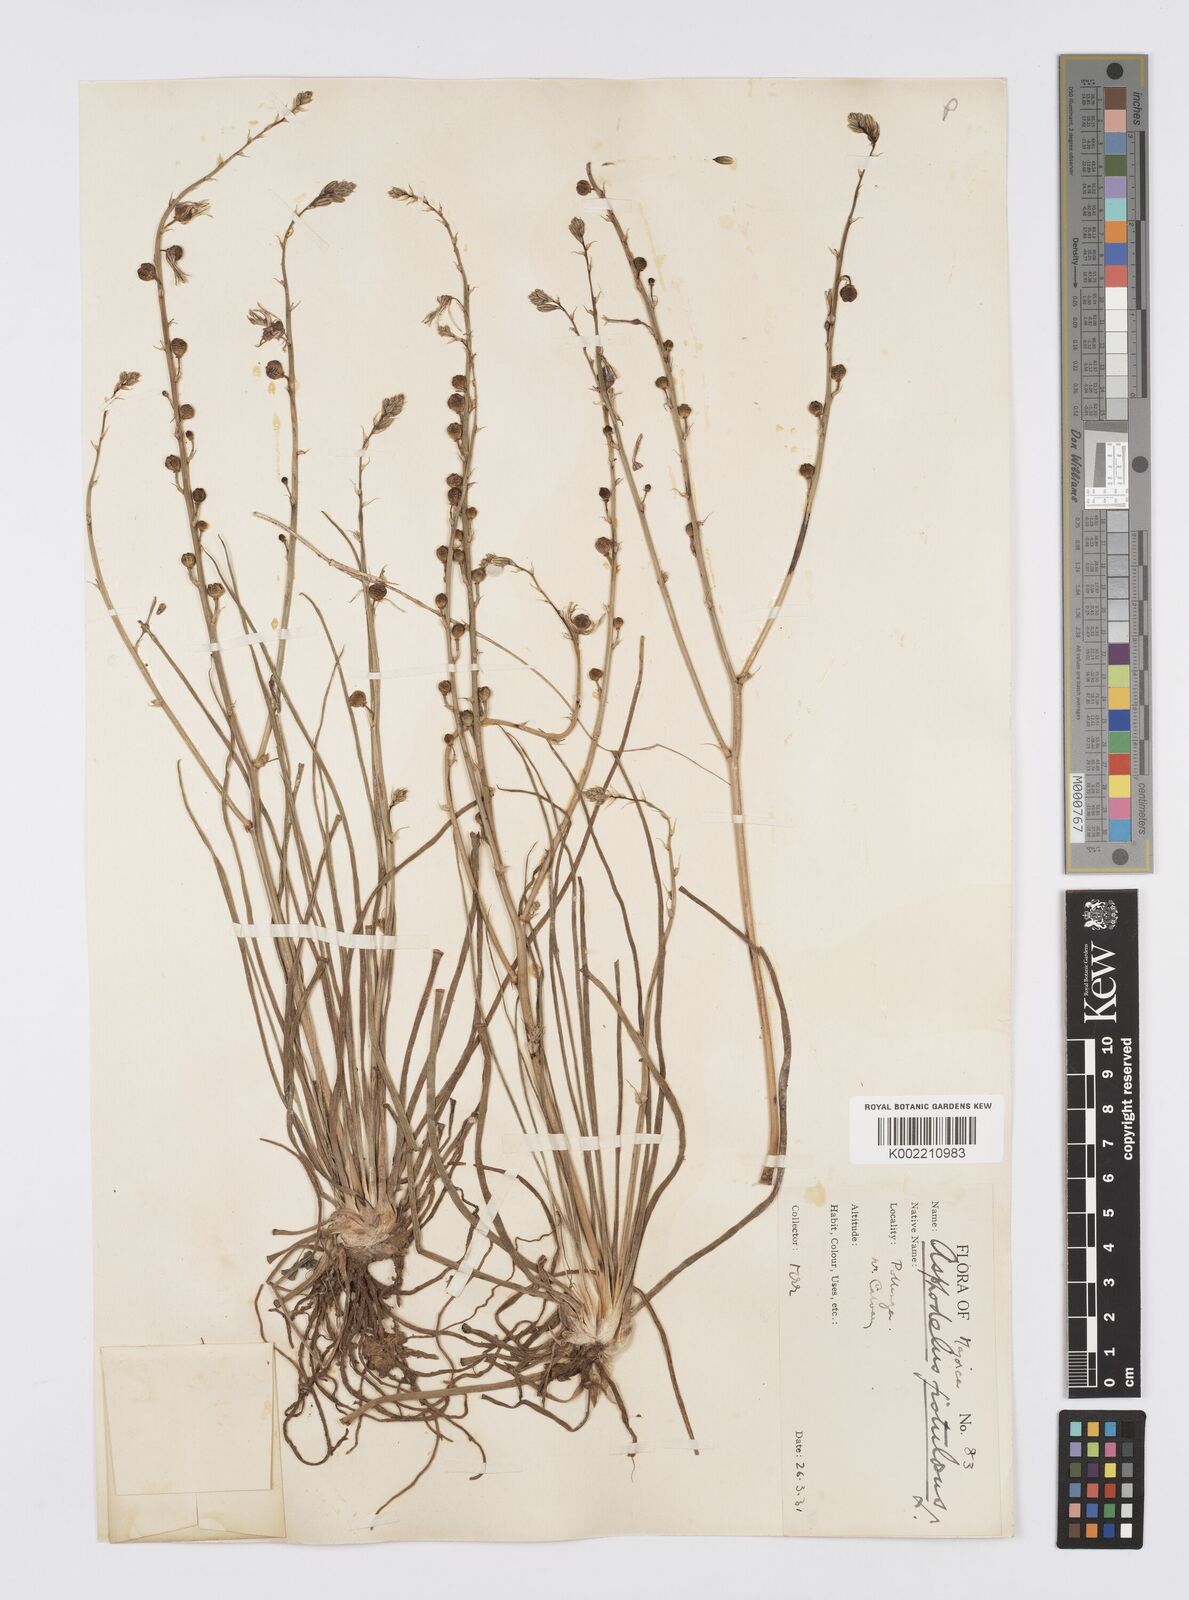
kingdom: Plantae
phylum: Tracheophyta
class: Liliopsida
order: Asparagales
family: Asphodelaceae
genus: Asphodelus
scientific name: Asphodelus fistulosus
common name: Onionweed
